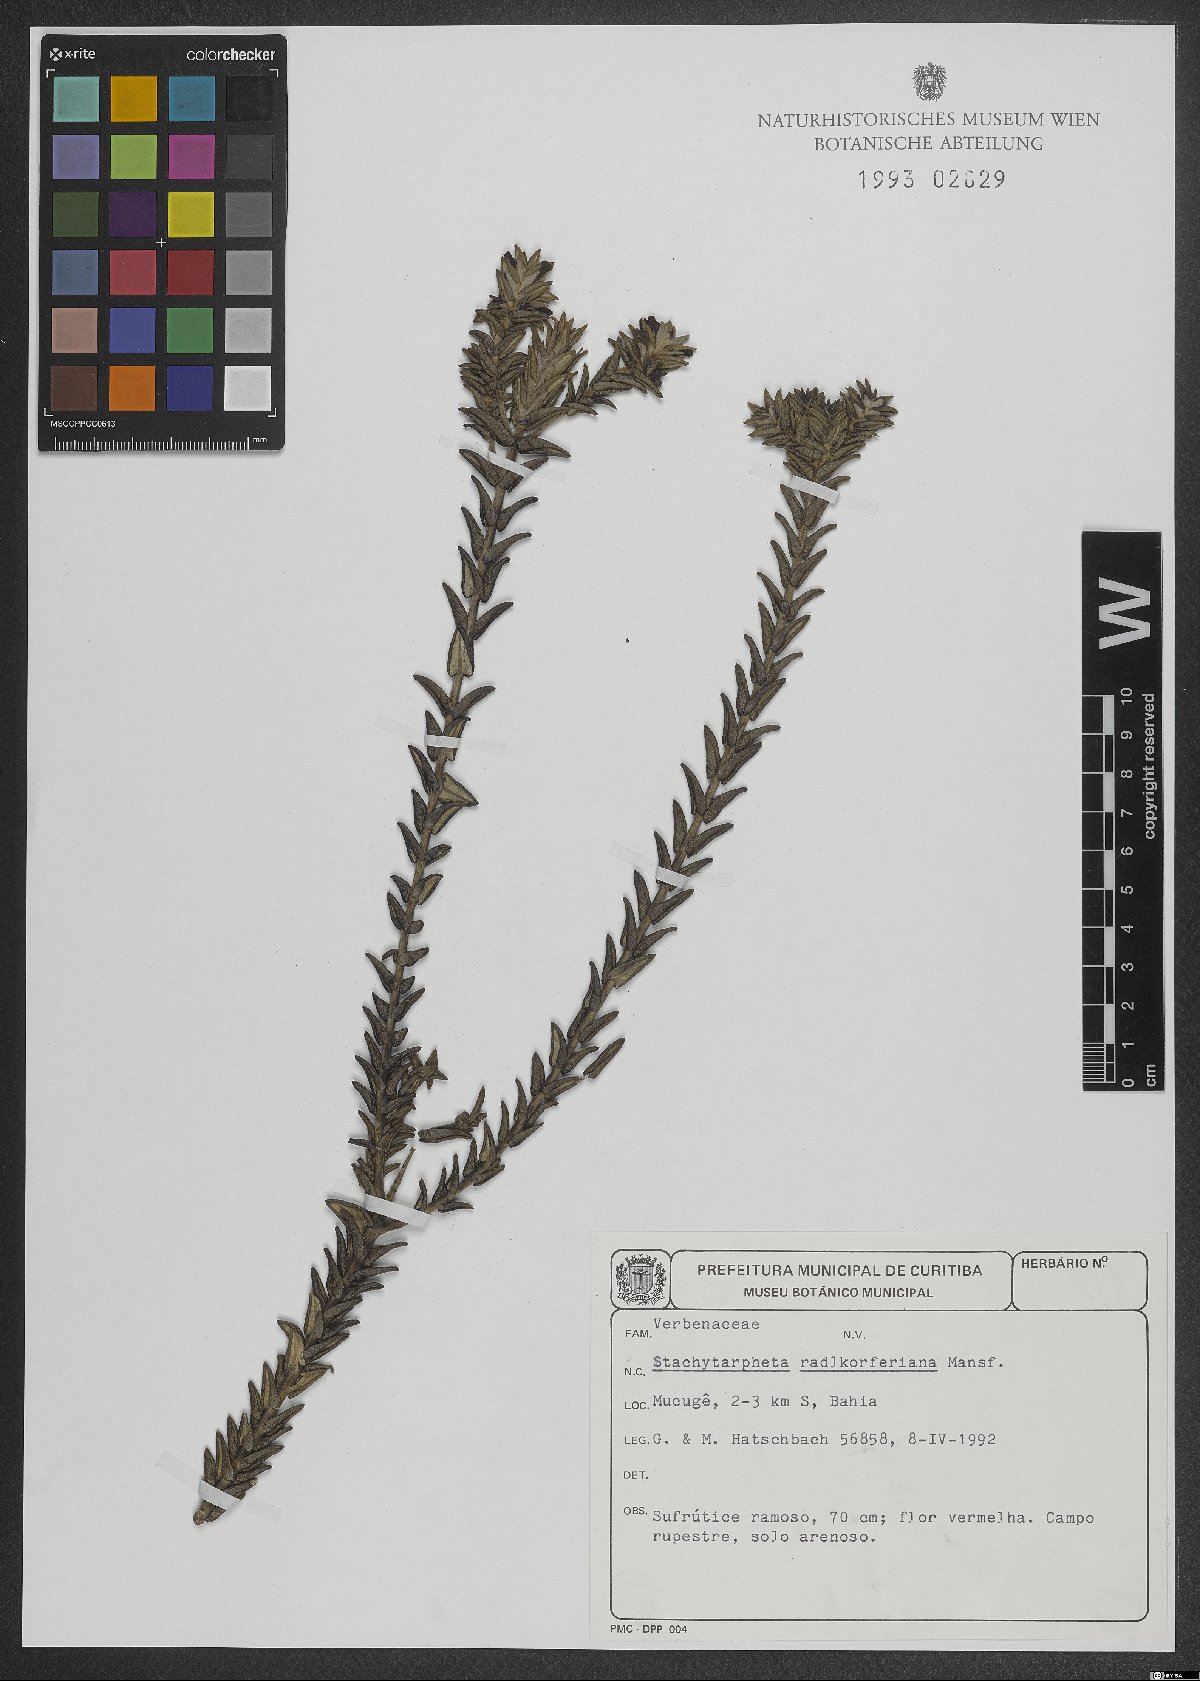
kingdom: Plantae
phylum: Tracheophyta
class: Magnoliopsida
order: Lamiales
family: Verbenaceae
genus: Stachytarpheta
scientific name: Stachytarpheta radlkoferiana
